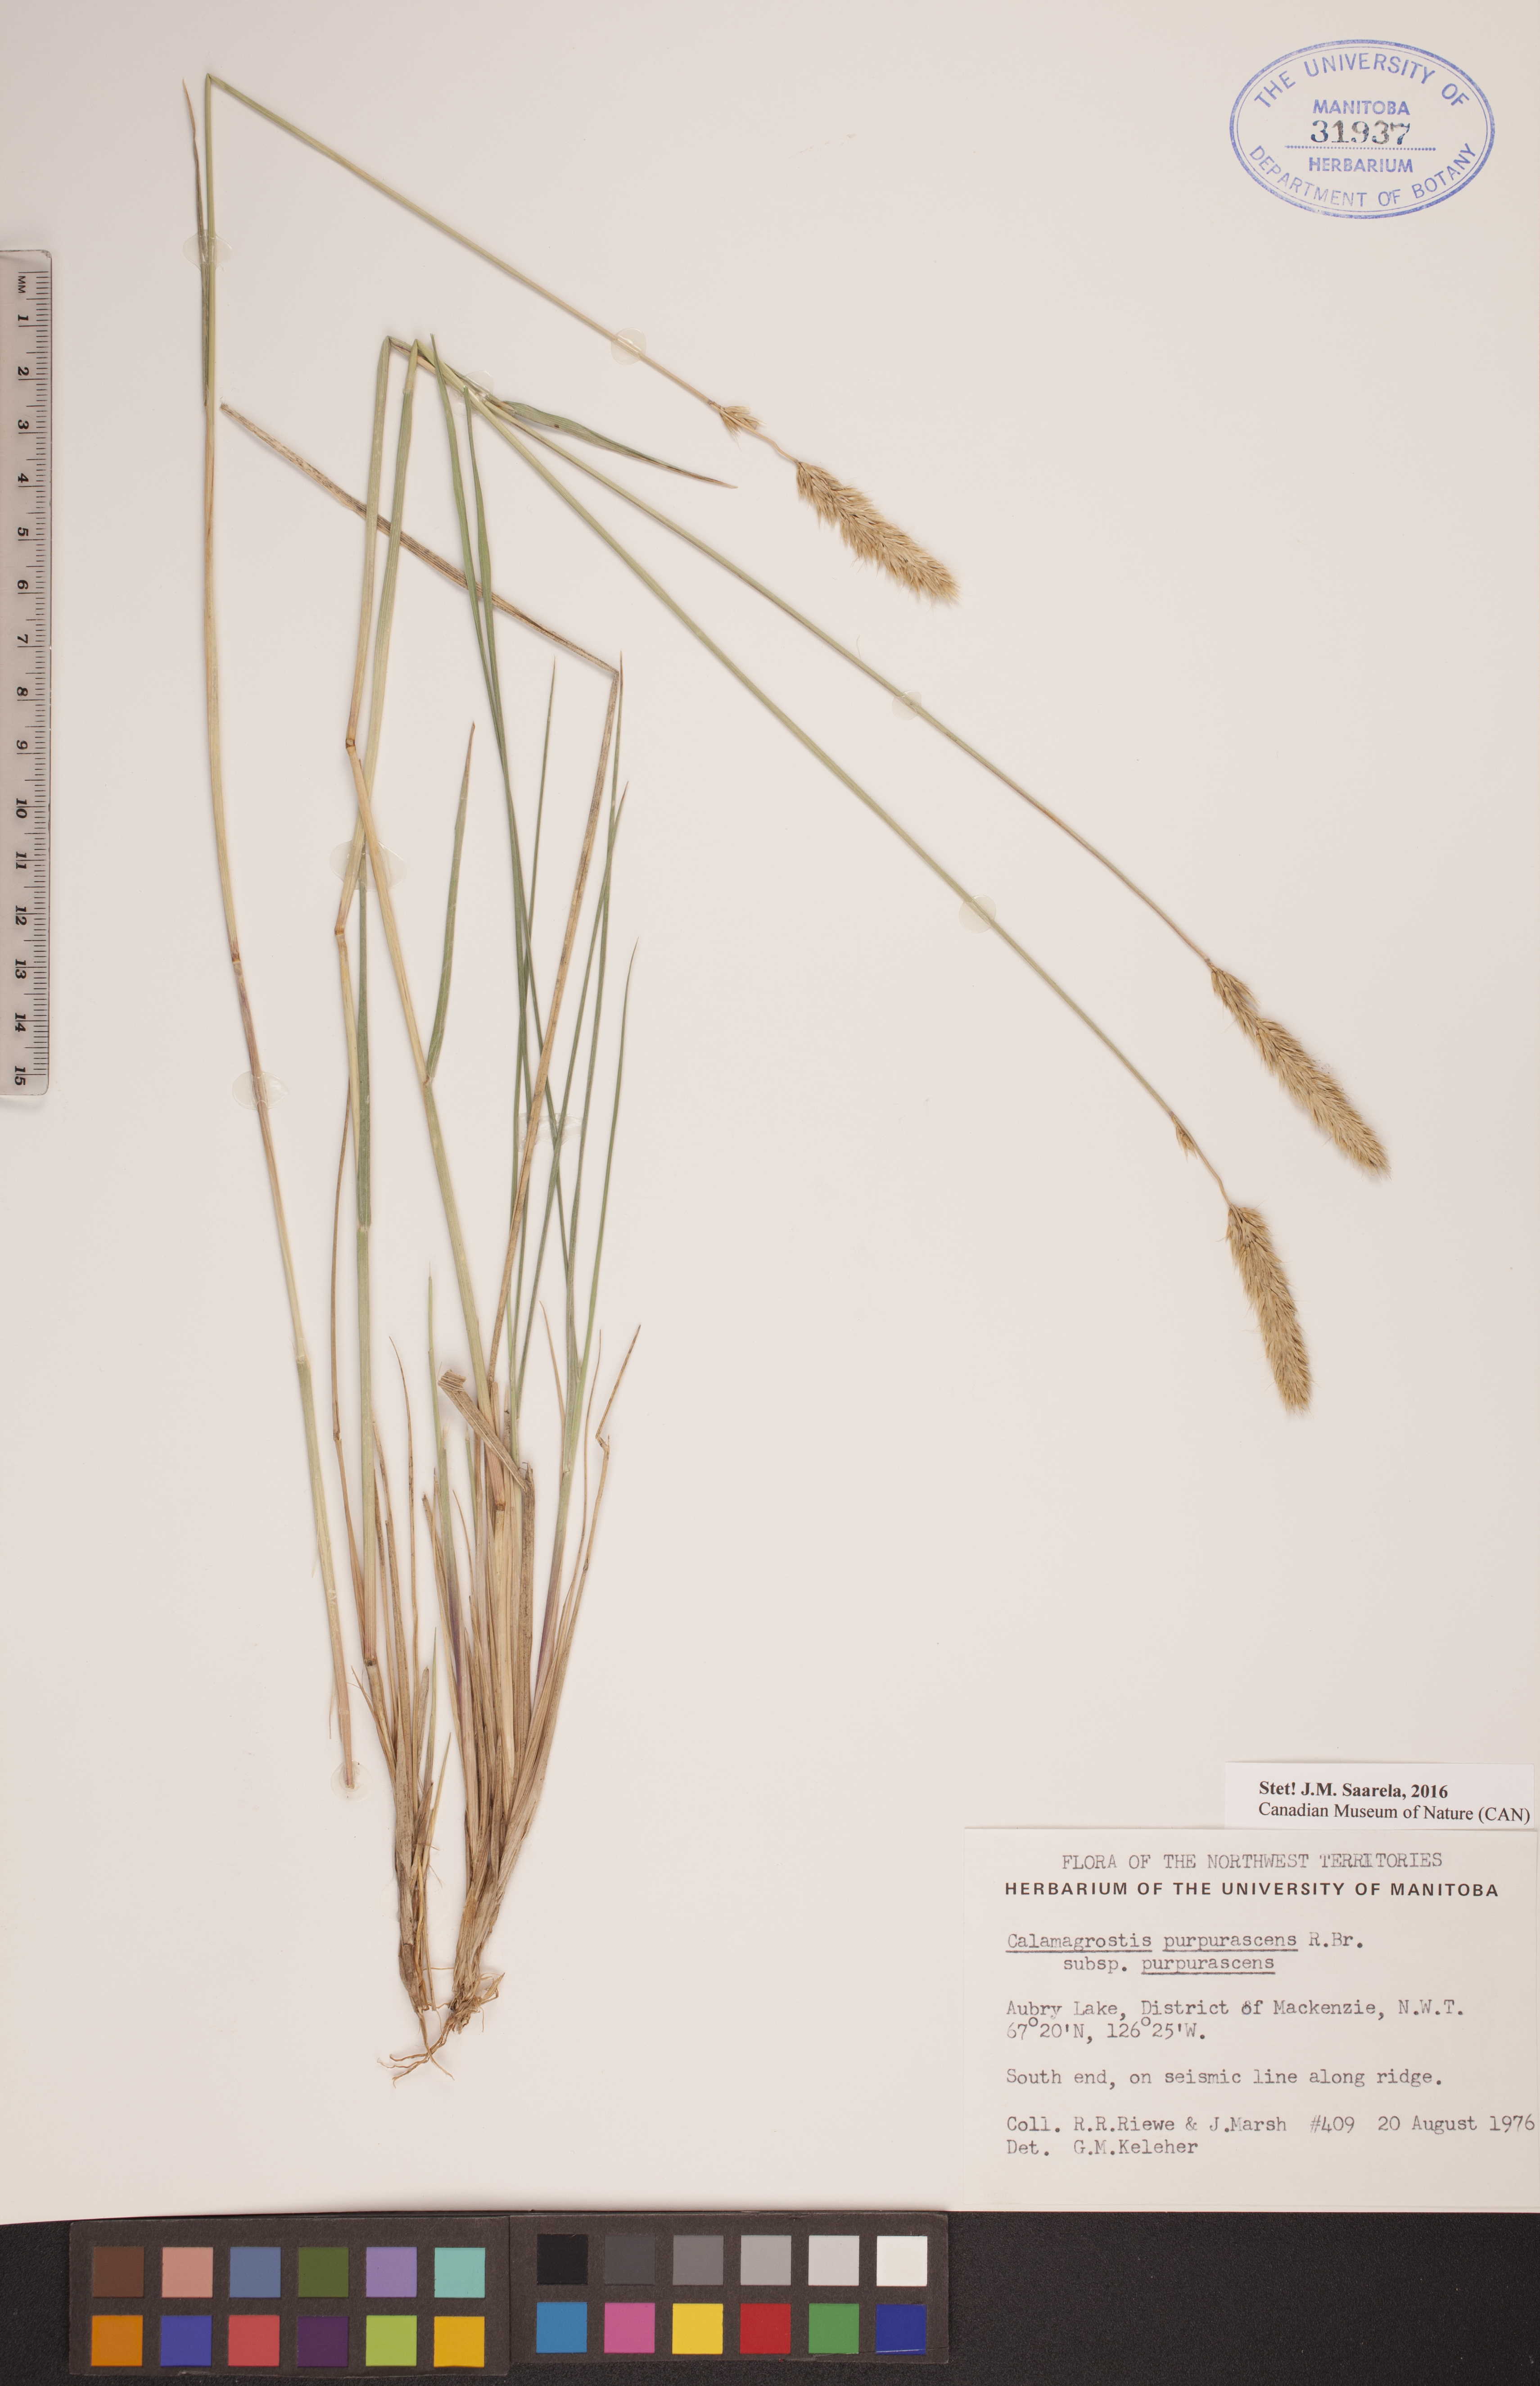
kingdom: Plantae
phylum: Tracheophyta
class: Liliopsida
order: Poales
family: Poaceae
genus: Calamagrostis
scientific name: Calamagrostis purpurascens
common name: Purple reedgrass
